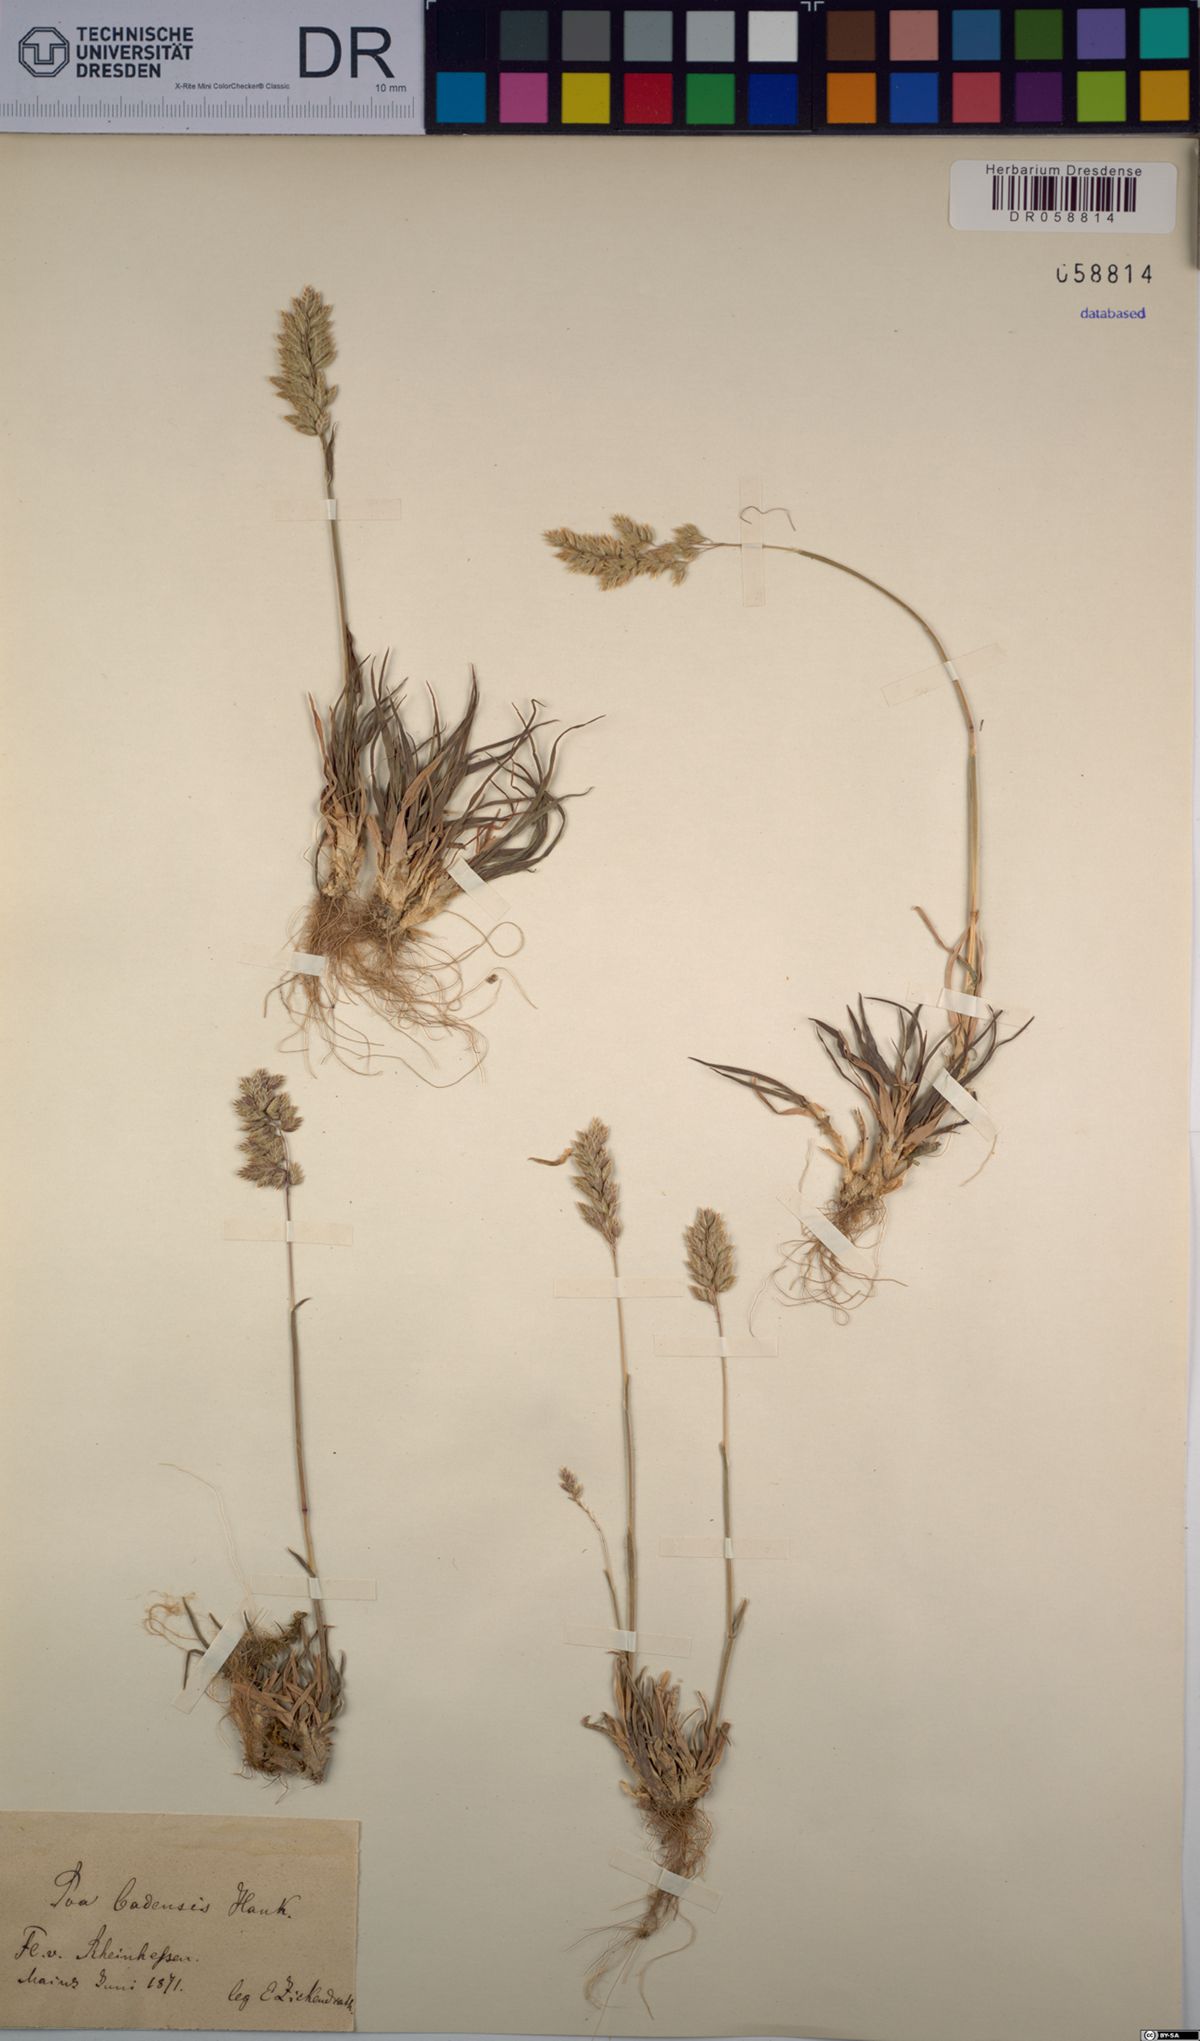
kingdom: Plantae
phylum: Tracheophyta
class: Liliopsida
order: Poales
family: Poaceae
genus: Poa
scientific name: Poa badensis
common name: Baden's bluegrass
